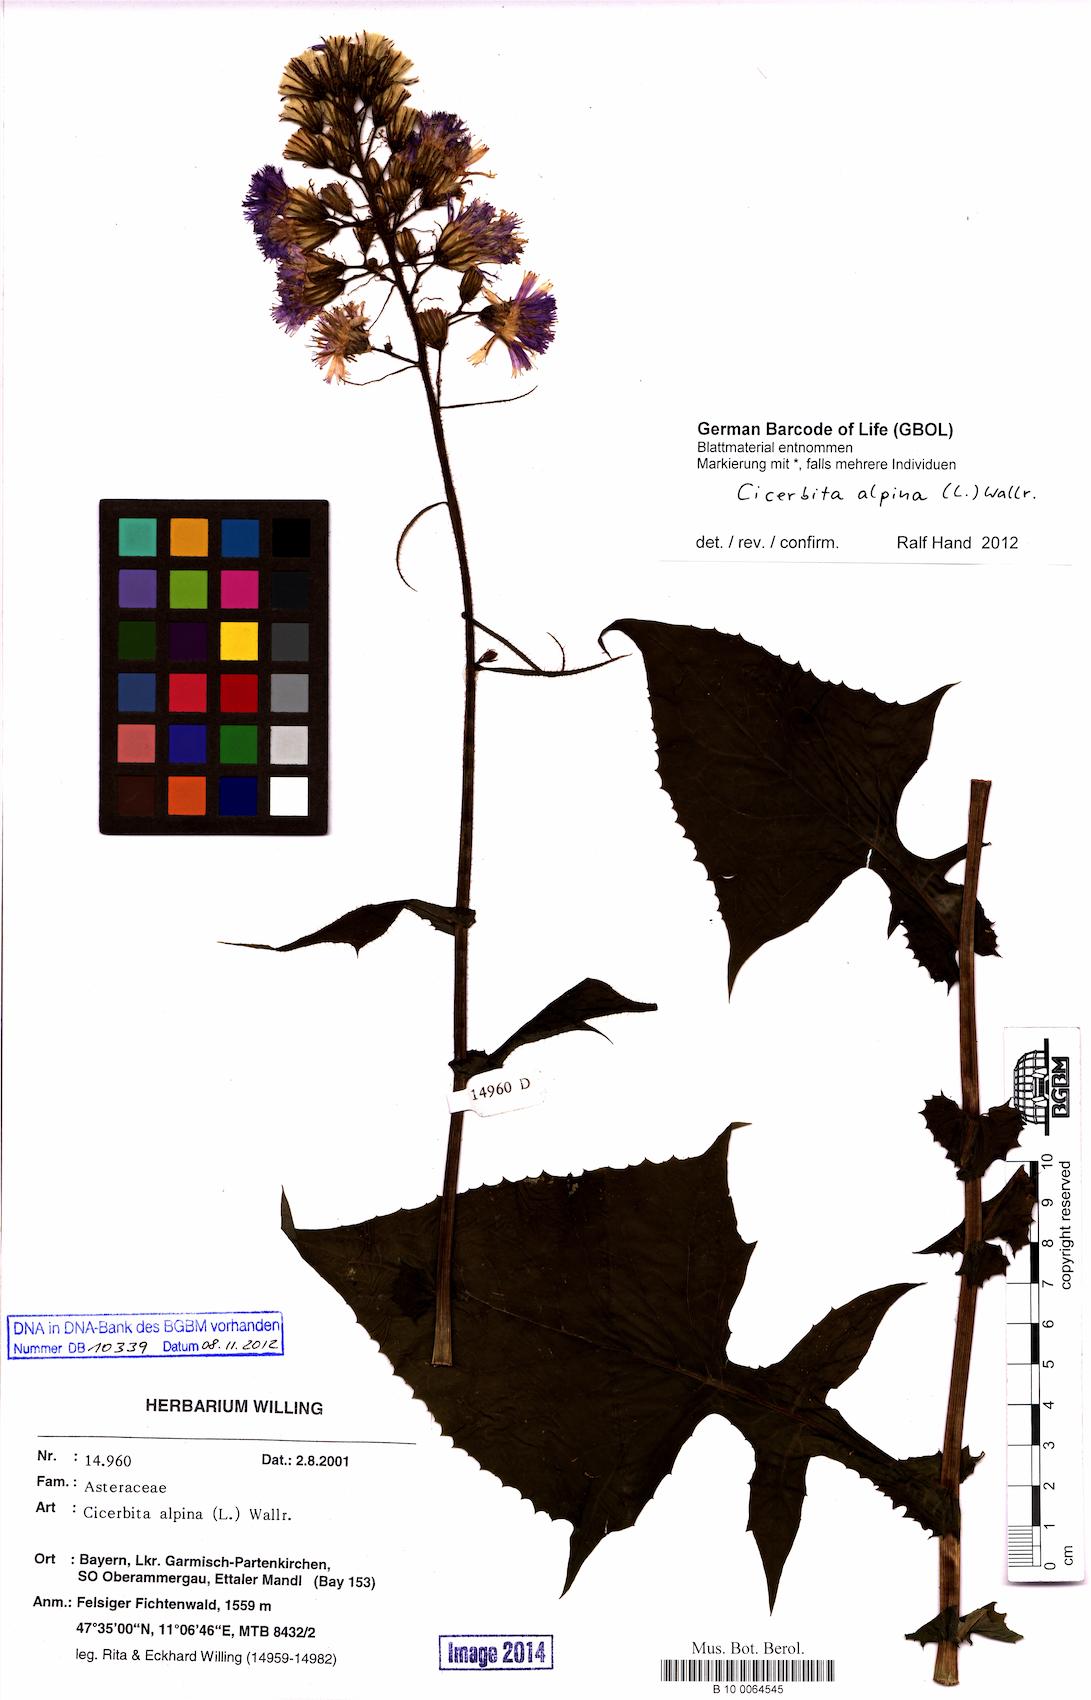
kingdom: Plantae
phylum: Tracheophyta
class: Magnoliopsida
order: Asterales
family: Asteraceae
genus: Cicerbita
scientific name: Cicerbita alpina
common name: Alpine blue-sow-thistle
